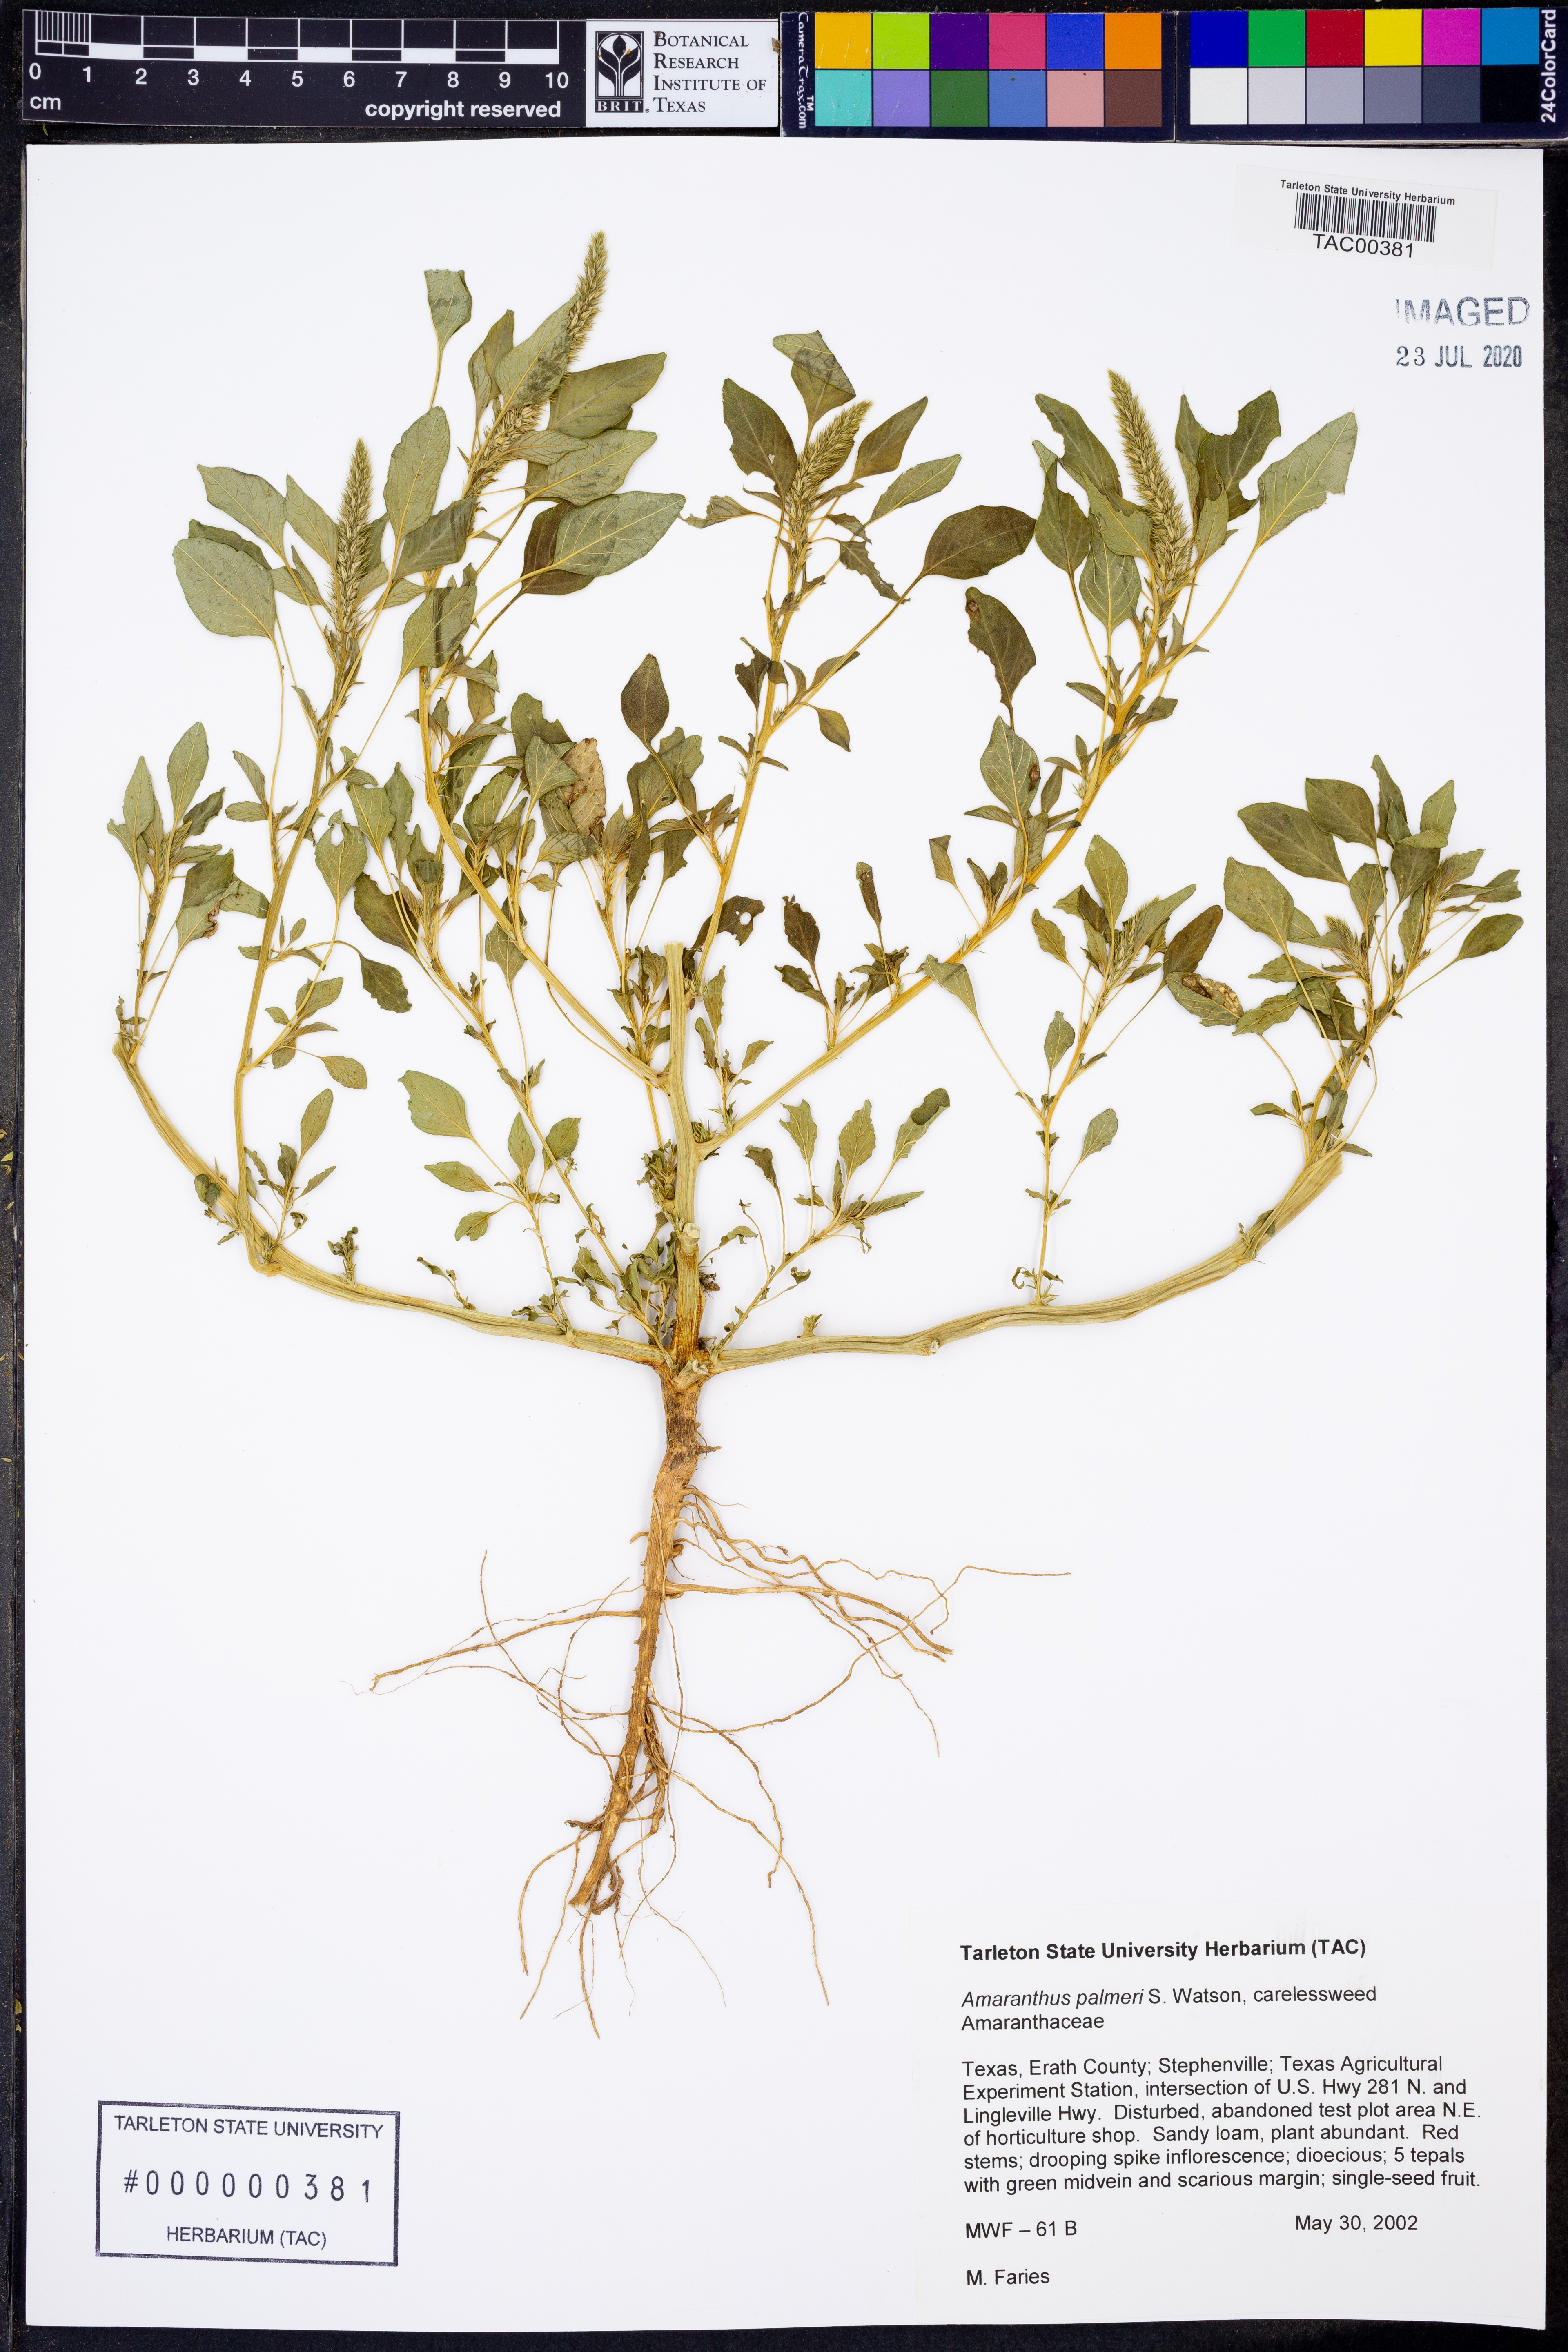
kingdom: Plantae
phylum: Tracheophyta
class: Magnoliopsida
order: Caryophyllales
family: Amaranthaceae
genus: Amaranthus
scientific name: Amaranthus palmeri
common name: Dioecious amaranth
